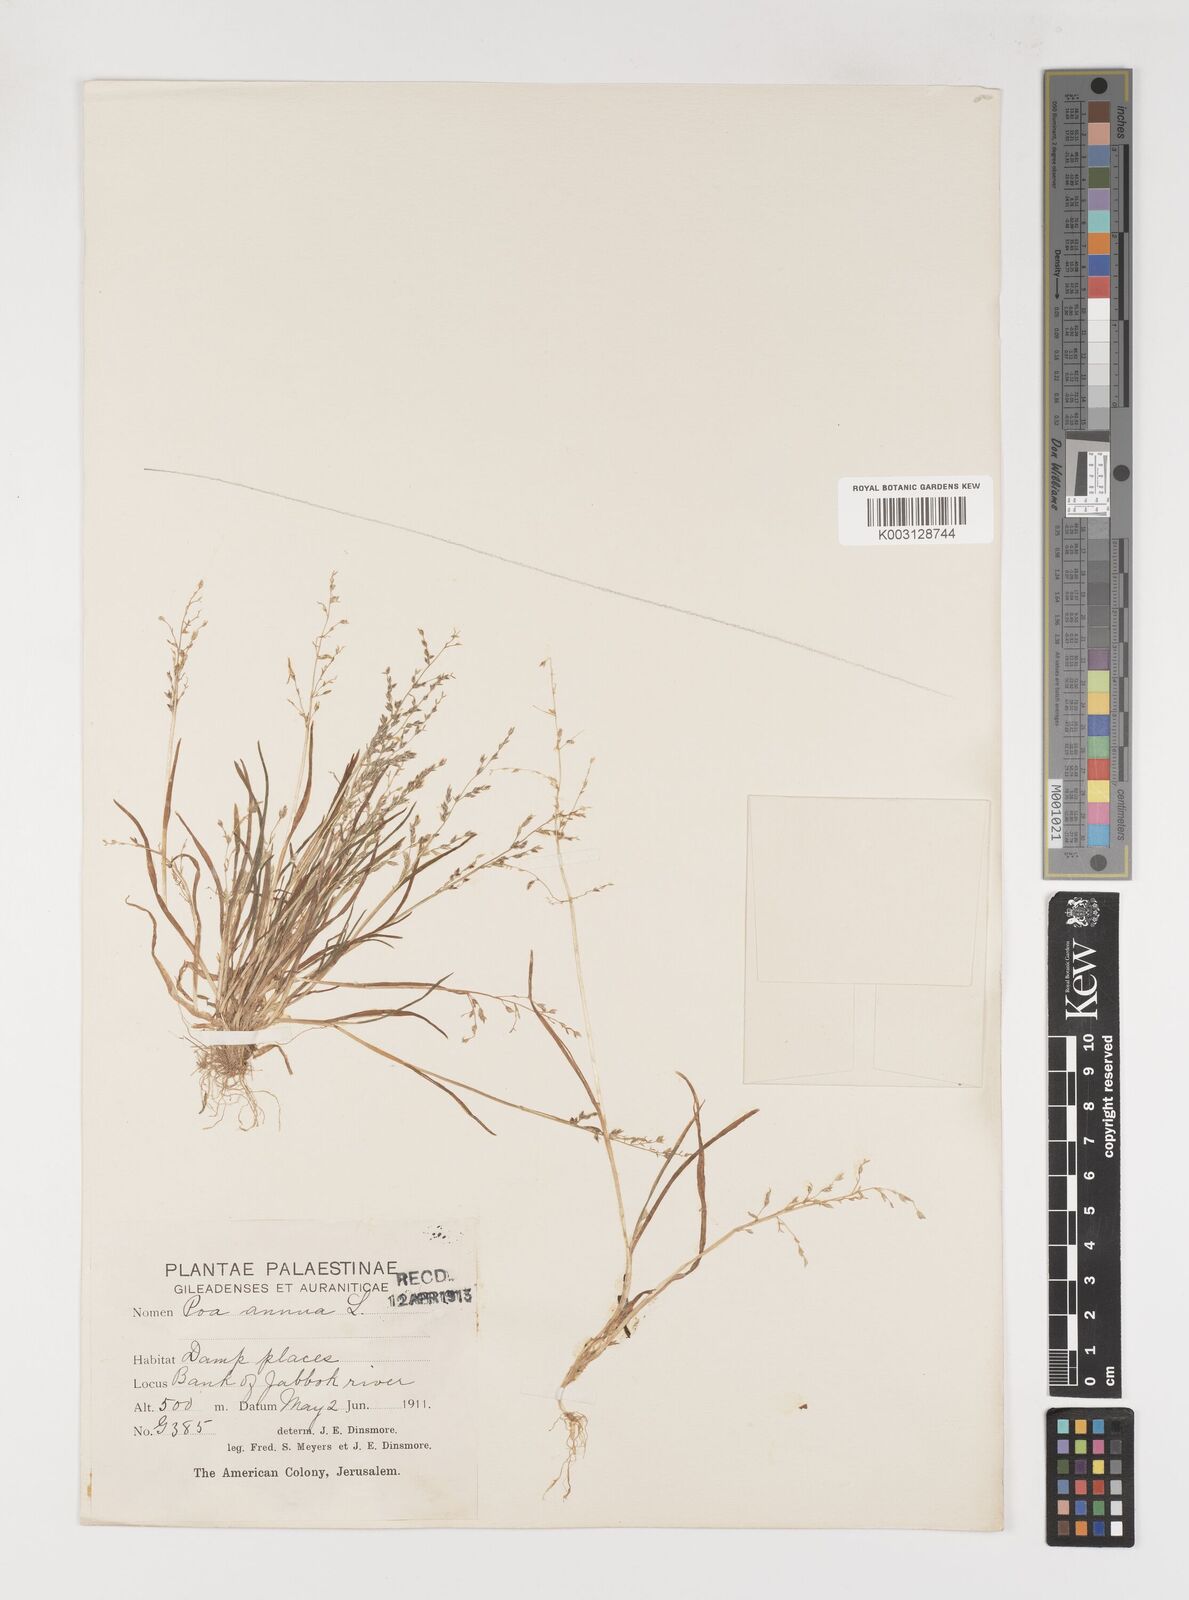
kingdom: Plantae
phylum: Tracheophyta
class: Liliopsida
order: Poales
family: Poaceae
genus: Poa
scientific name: Poa infirma
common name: Weak bluegrass
